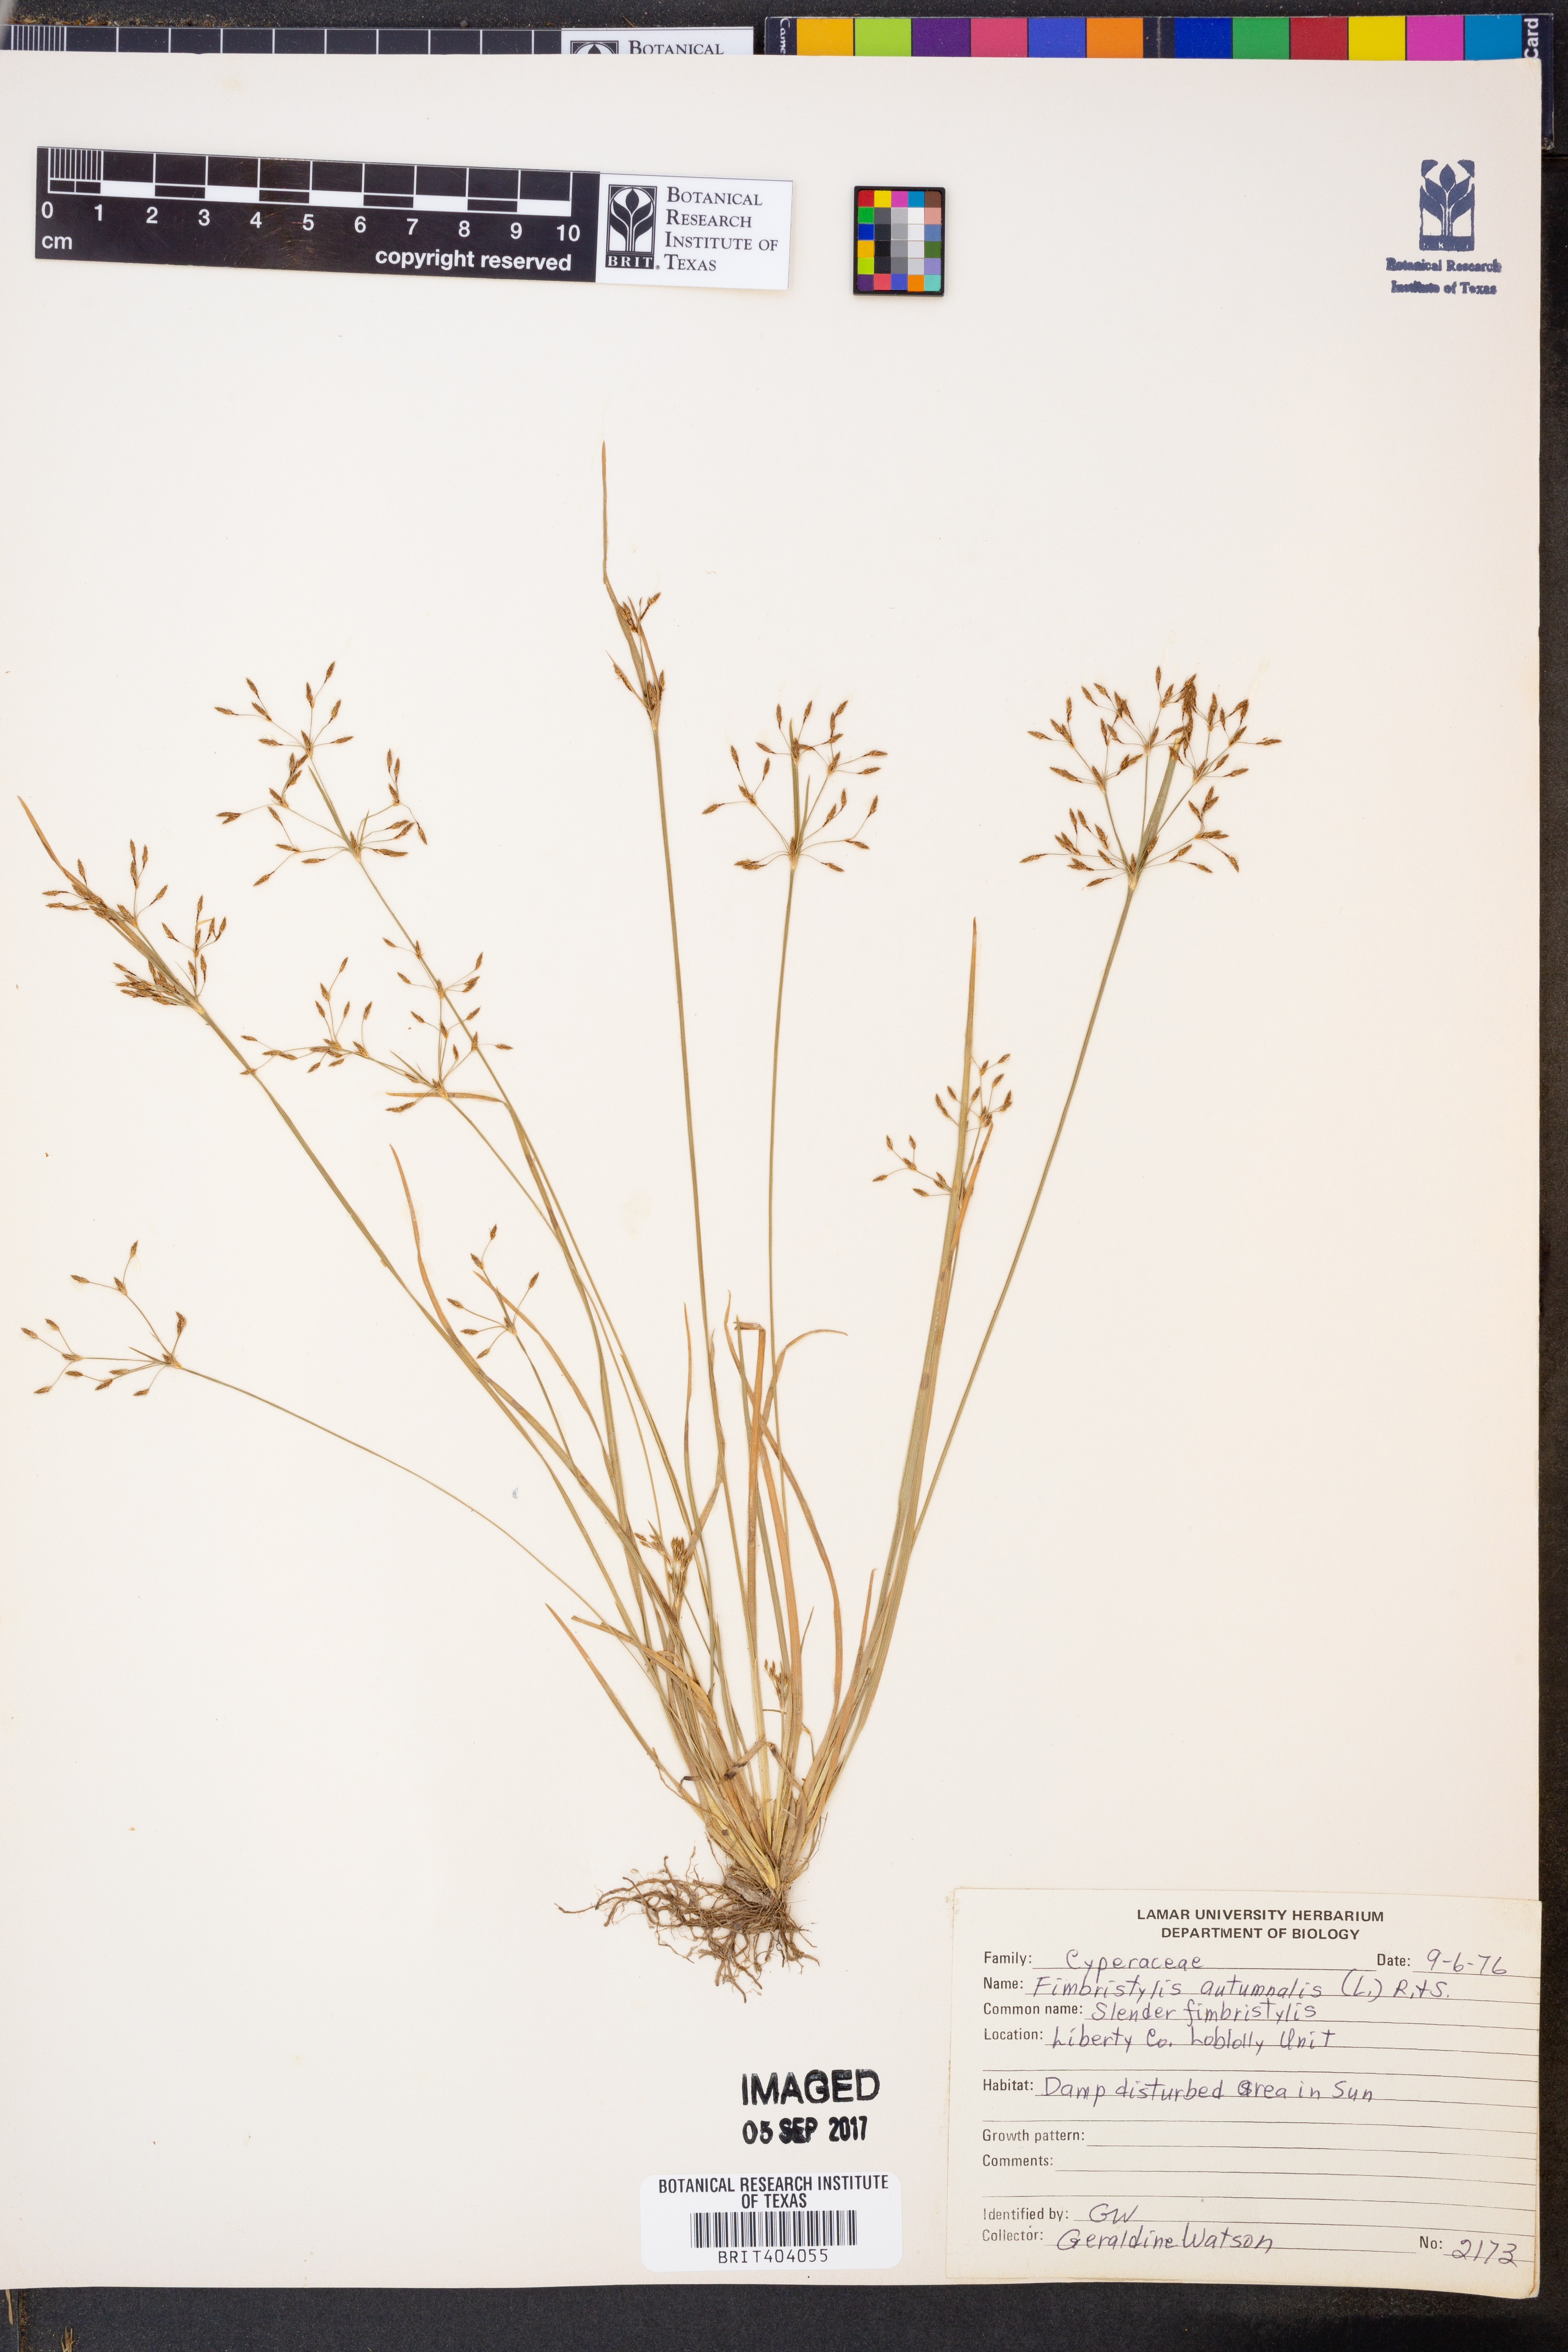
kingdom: Plantae
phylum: Tracheophyta
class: Liliopsida
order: Poales
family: Cyperaceae
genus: Fimbristylis
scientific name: Fimbristylis autumnalis
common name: Slender fimbristylis
